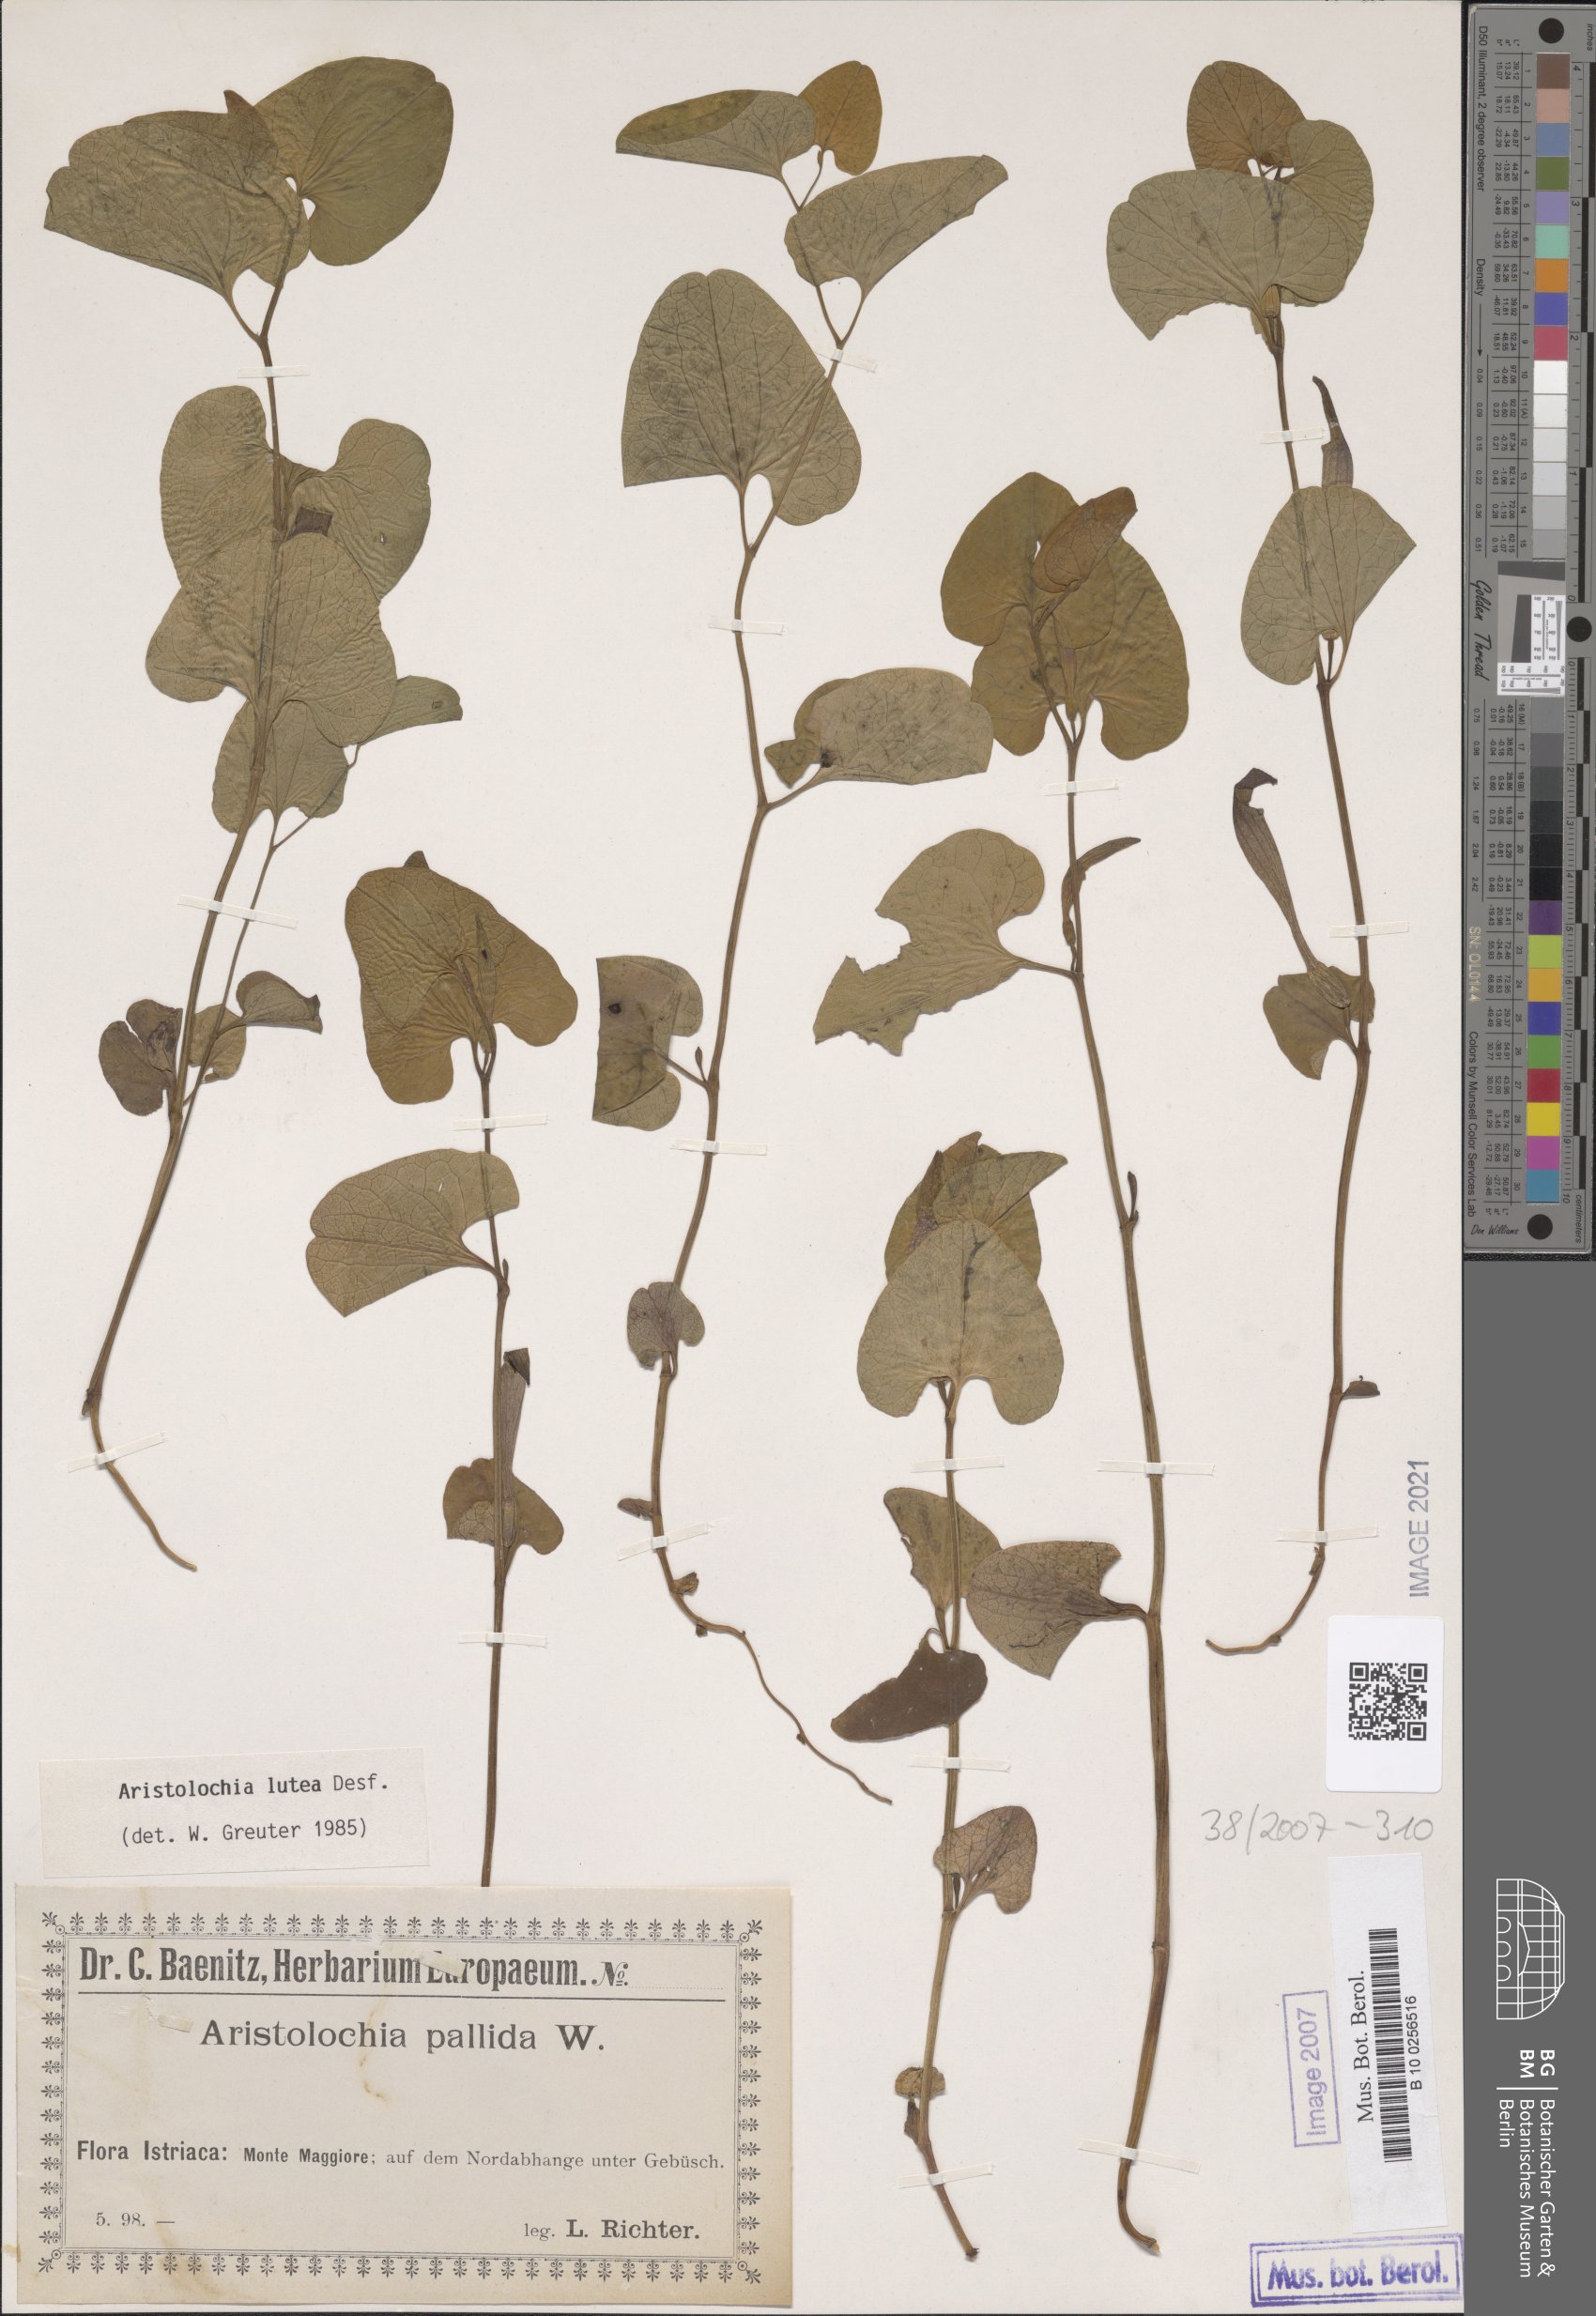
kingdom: Plantae
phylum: Tracheophyta
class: Magnoliopsida
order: Piperales
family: Aristolochiaceae
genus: Aristolochia
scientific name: Aristolochia lutea
